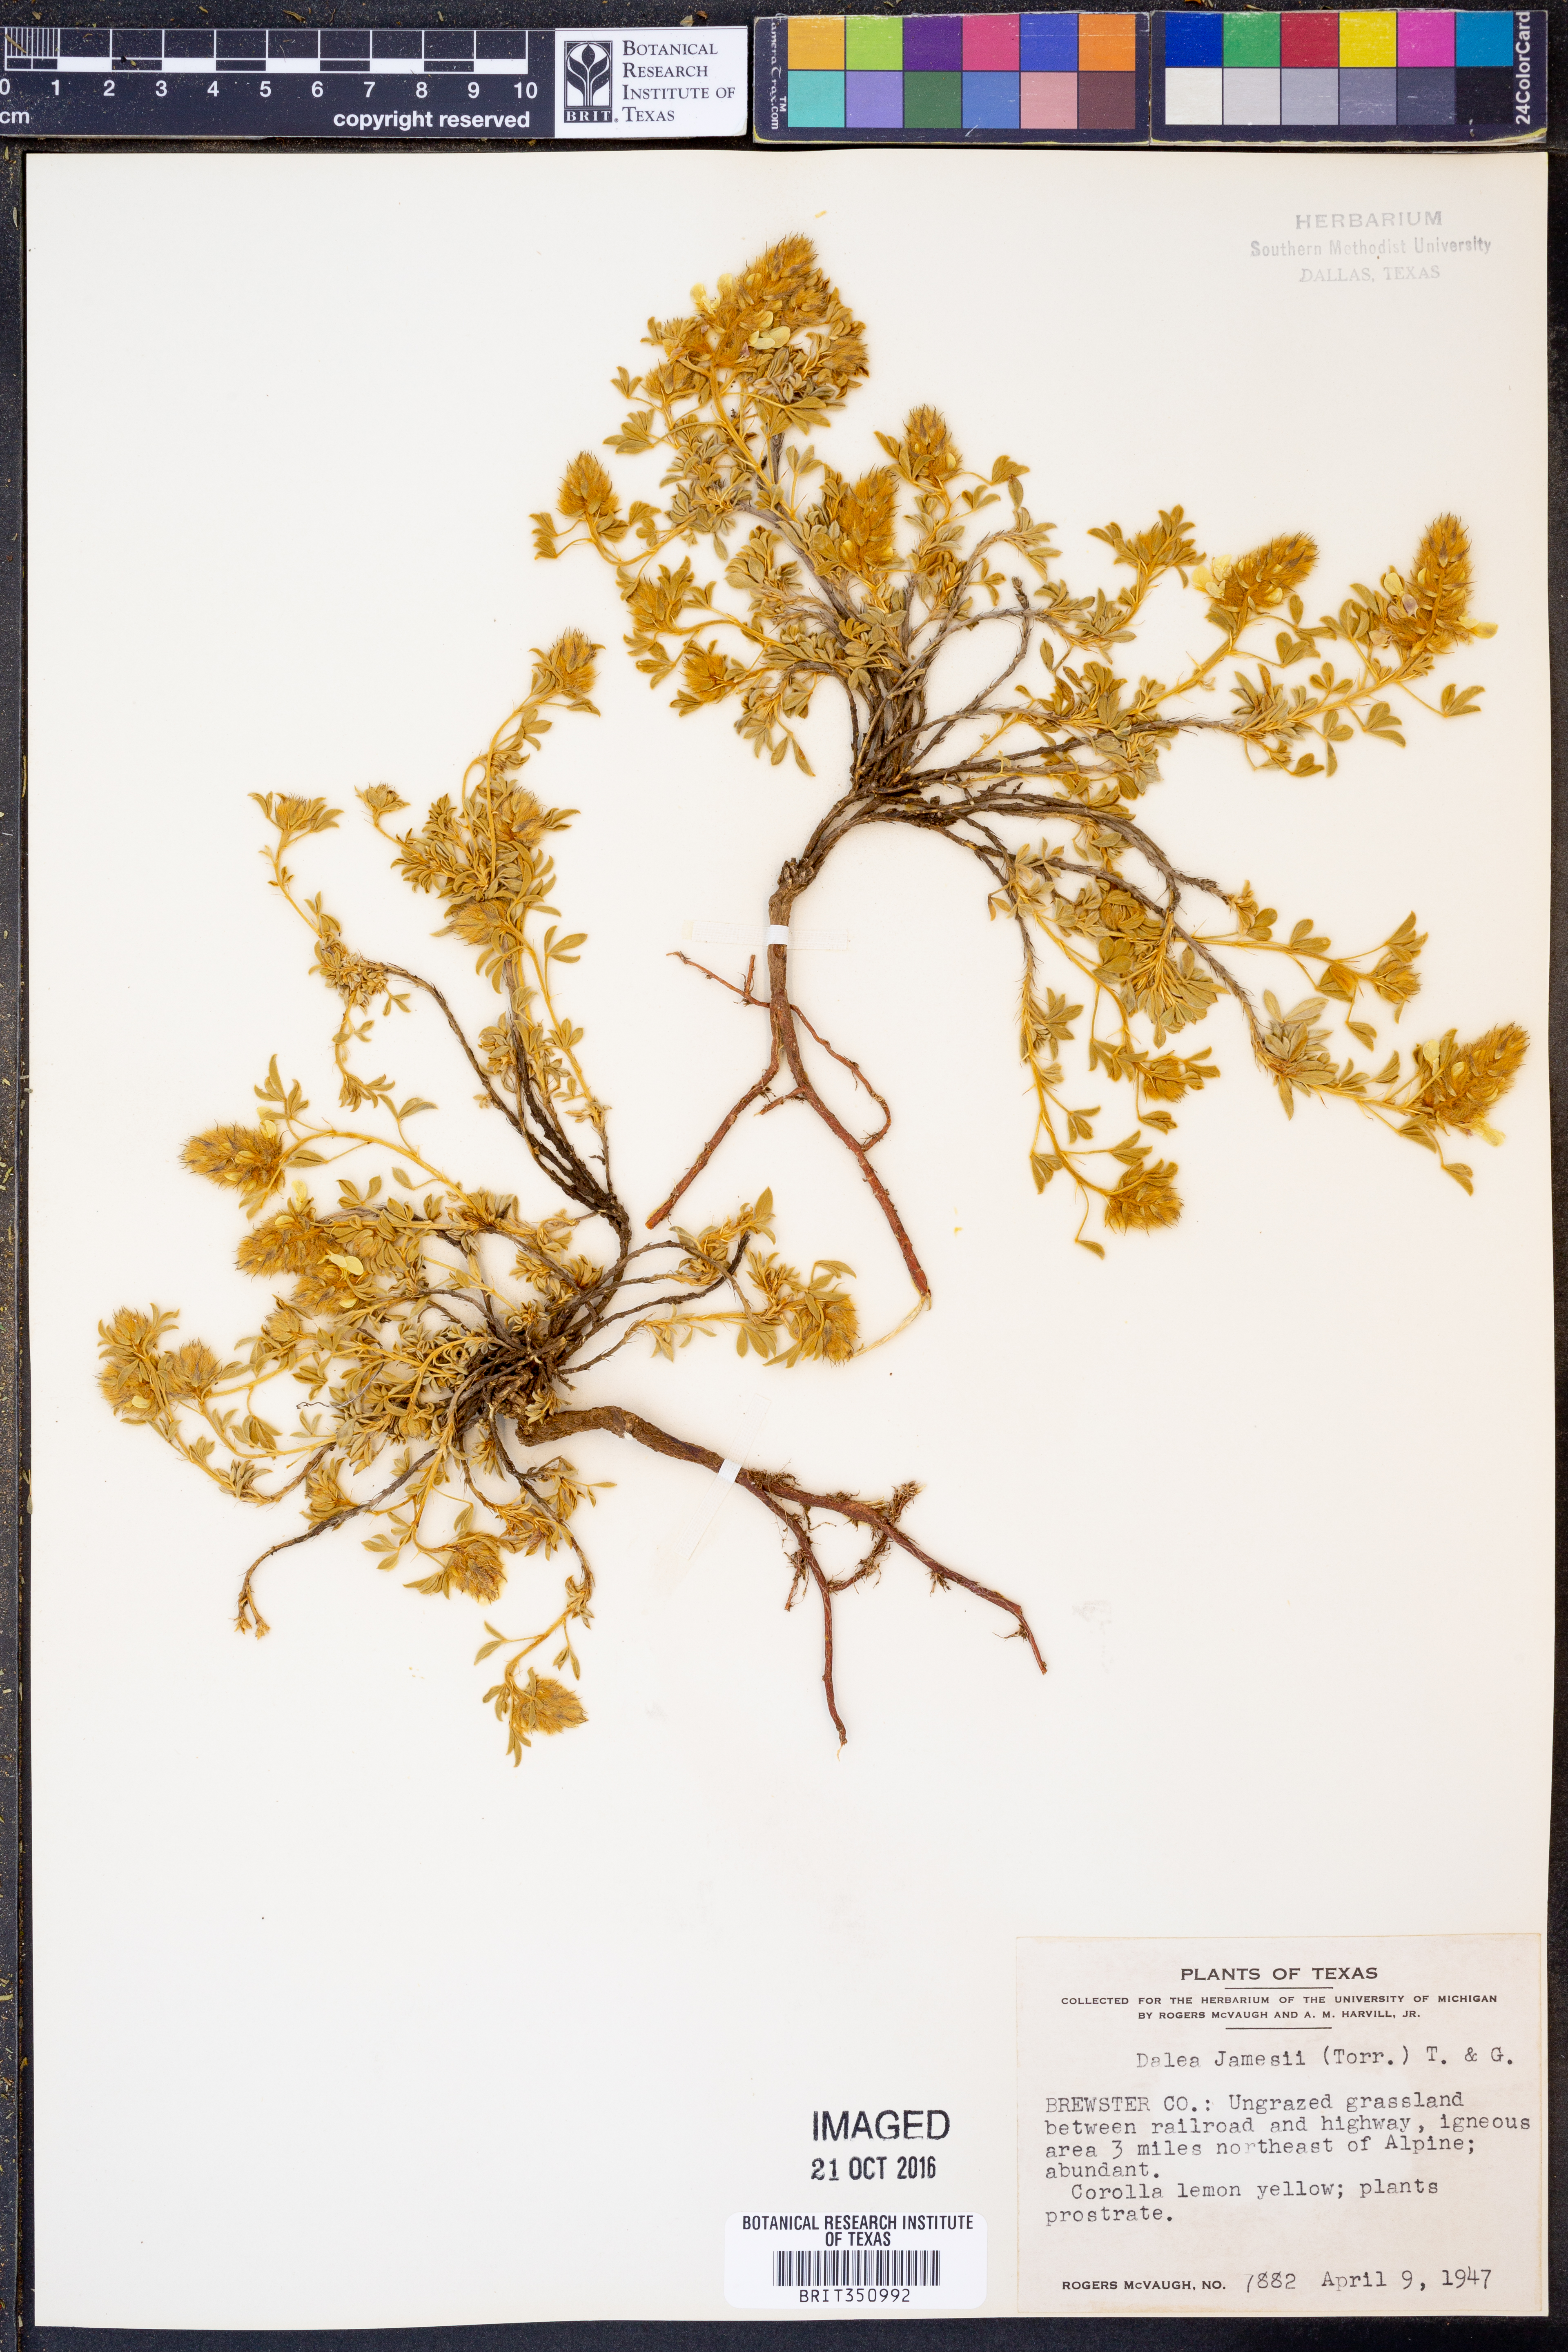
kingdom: Plantae
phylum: Tracheophyta
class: Magnoliopsida
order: Fabales
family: Fabaceae
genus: Dalea
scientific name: Dalea jamesii
